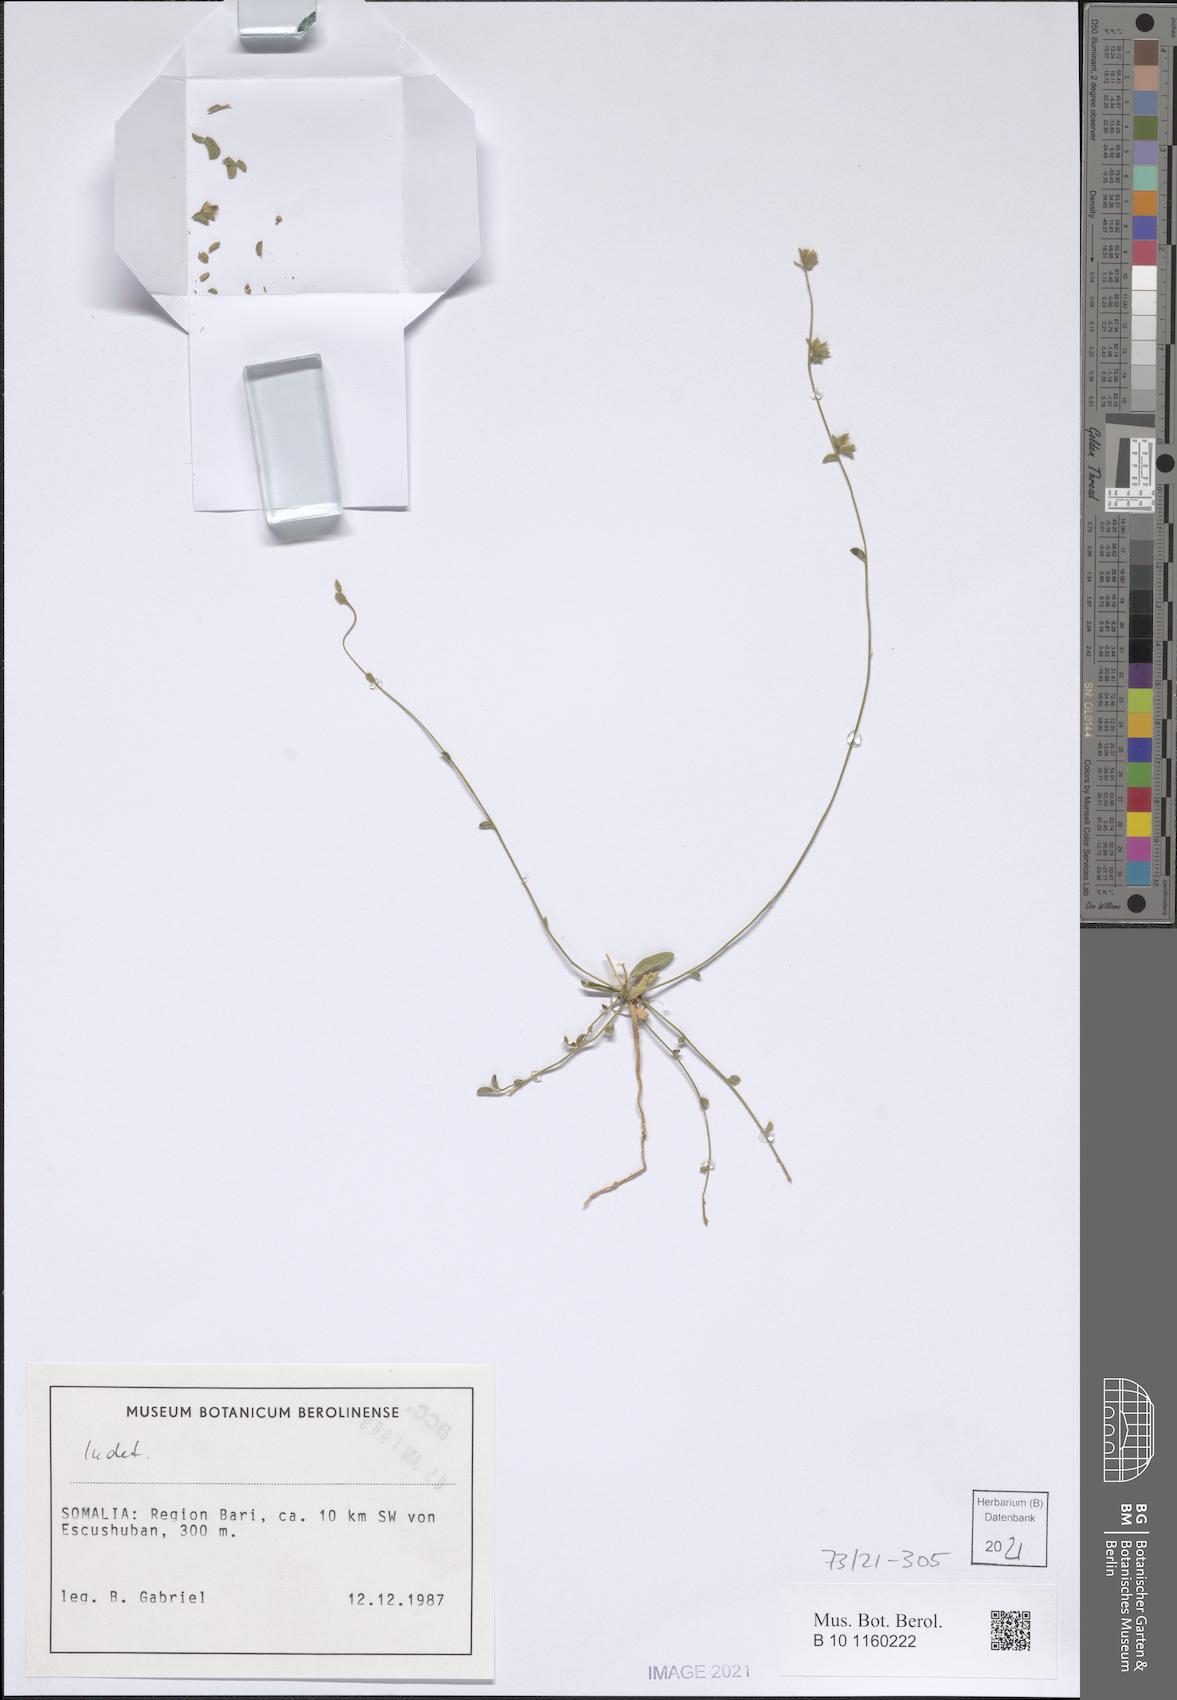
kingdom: Plantae
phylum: Tracheophyta
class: Magnoliopsida
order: Solanales
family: Convolvulaceae
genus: Convolvulus
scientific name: Convolvulus rhyniospermus
